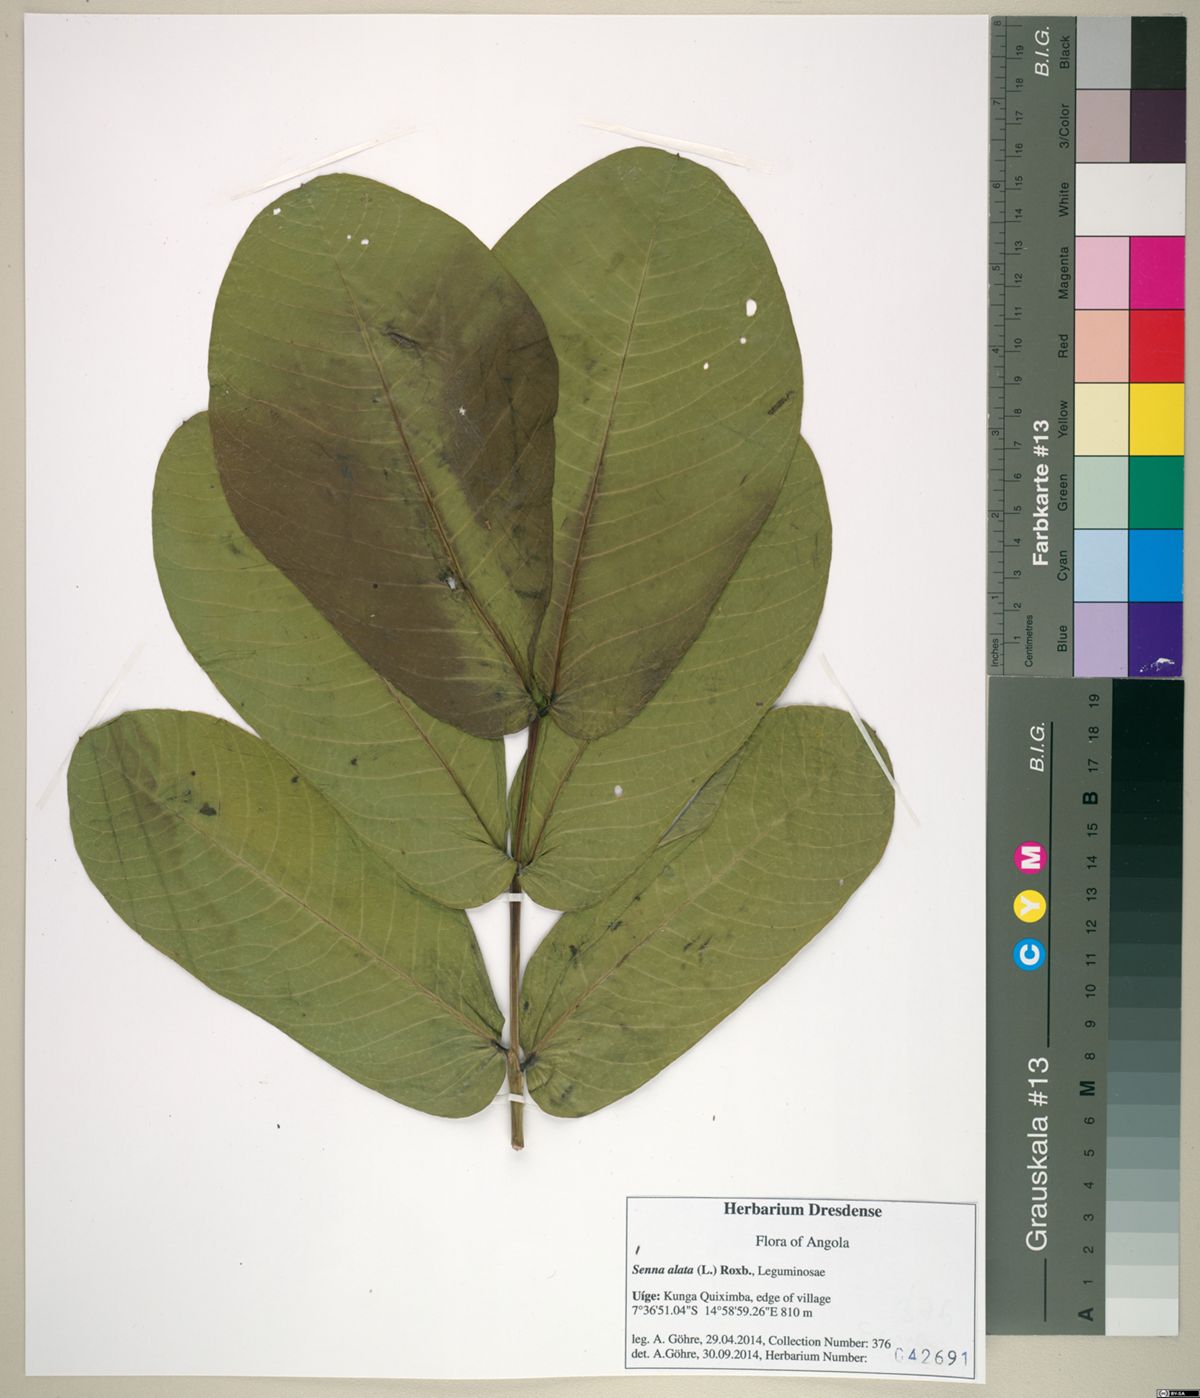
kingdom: Plantae
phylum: Tracheophyta
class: Magnoliopsida
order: Fabales
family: Fabaceae
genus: Senna
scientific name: Senna alata
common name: Emperor's candlesticks
